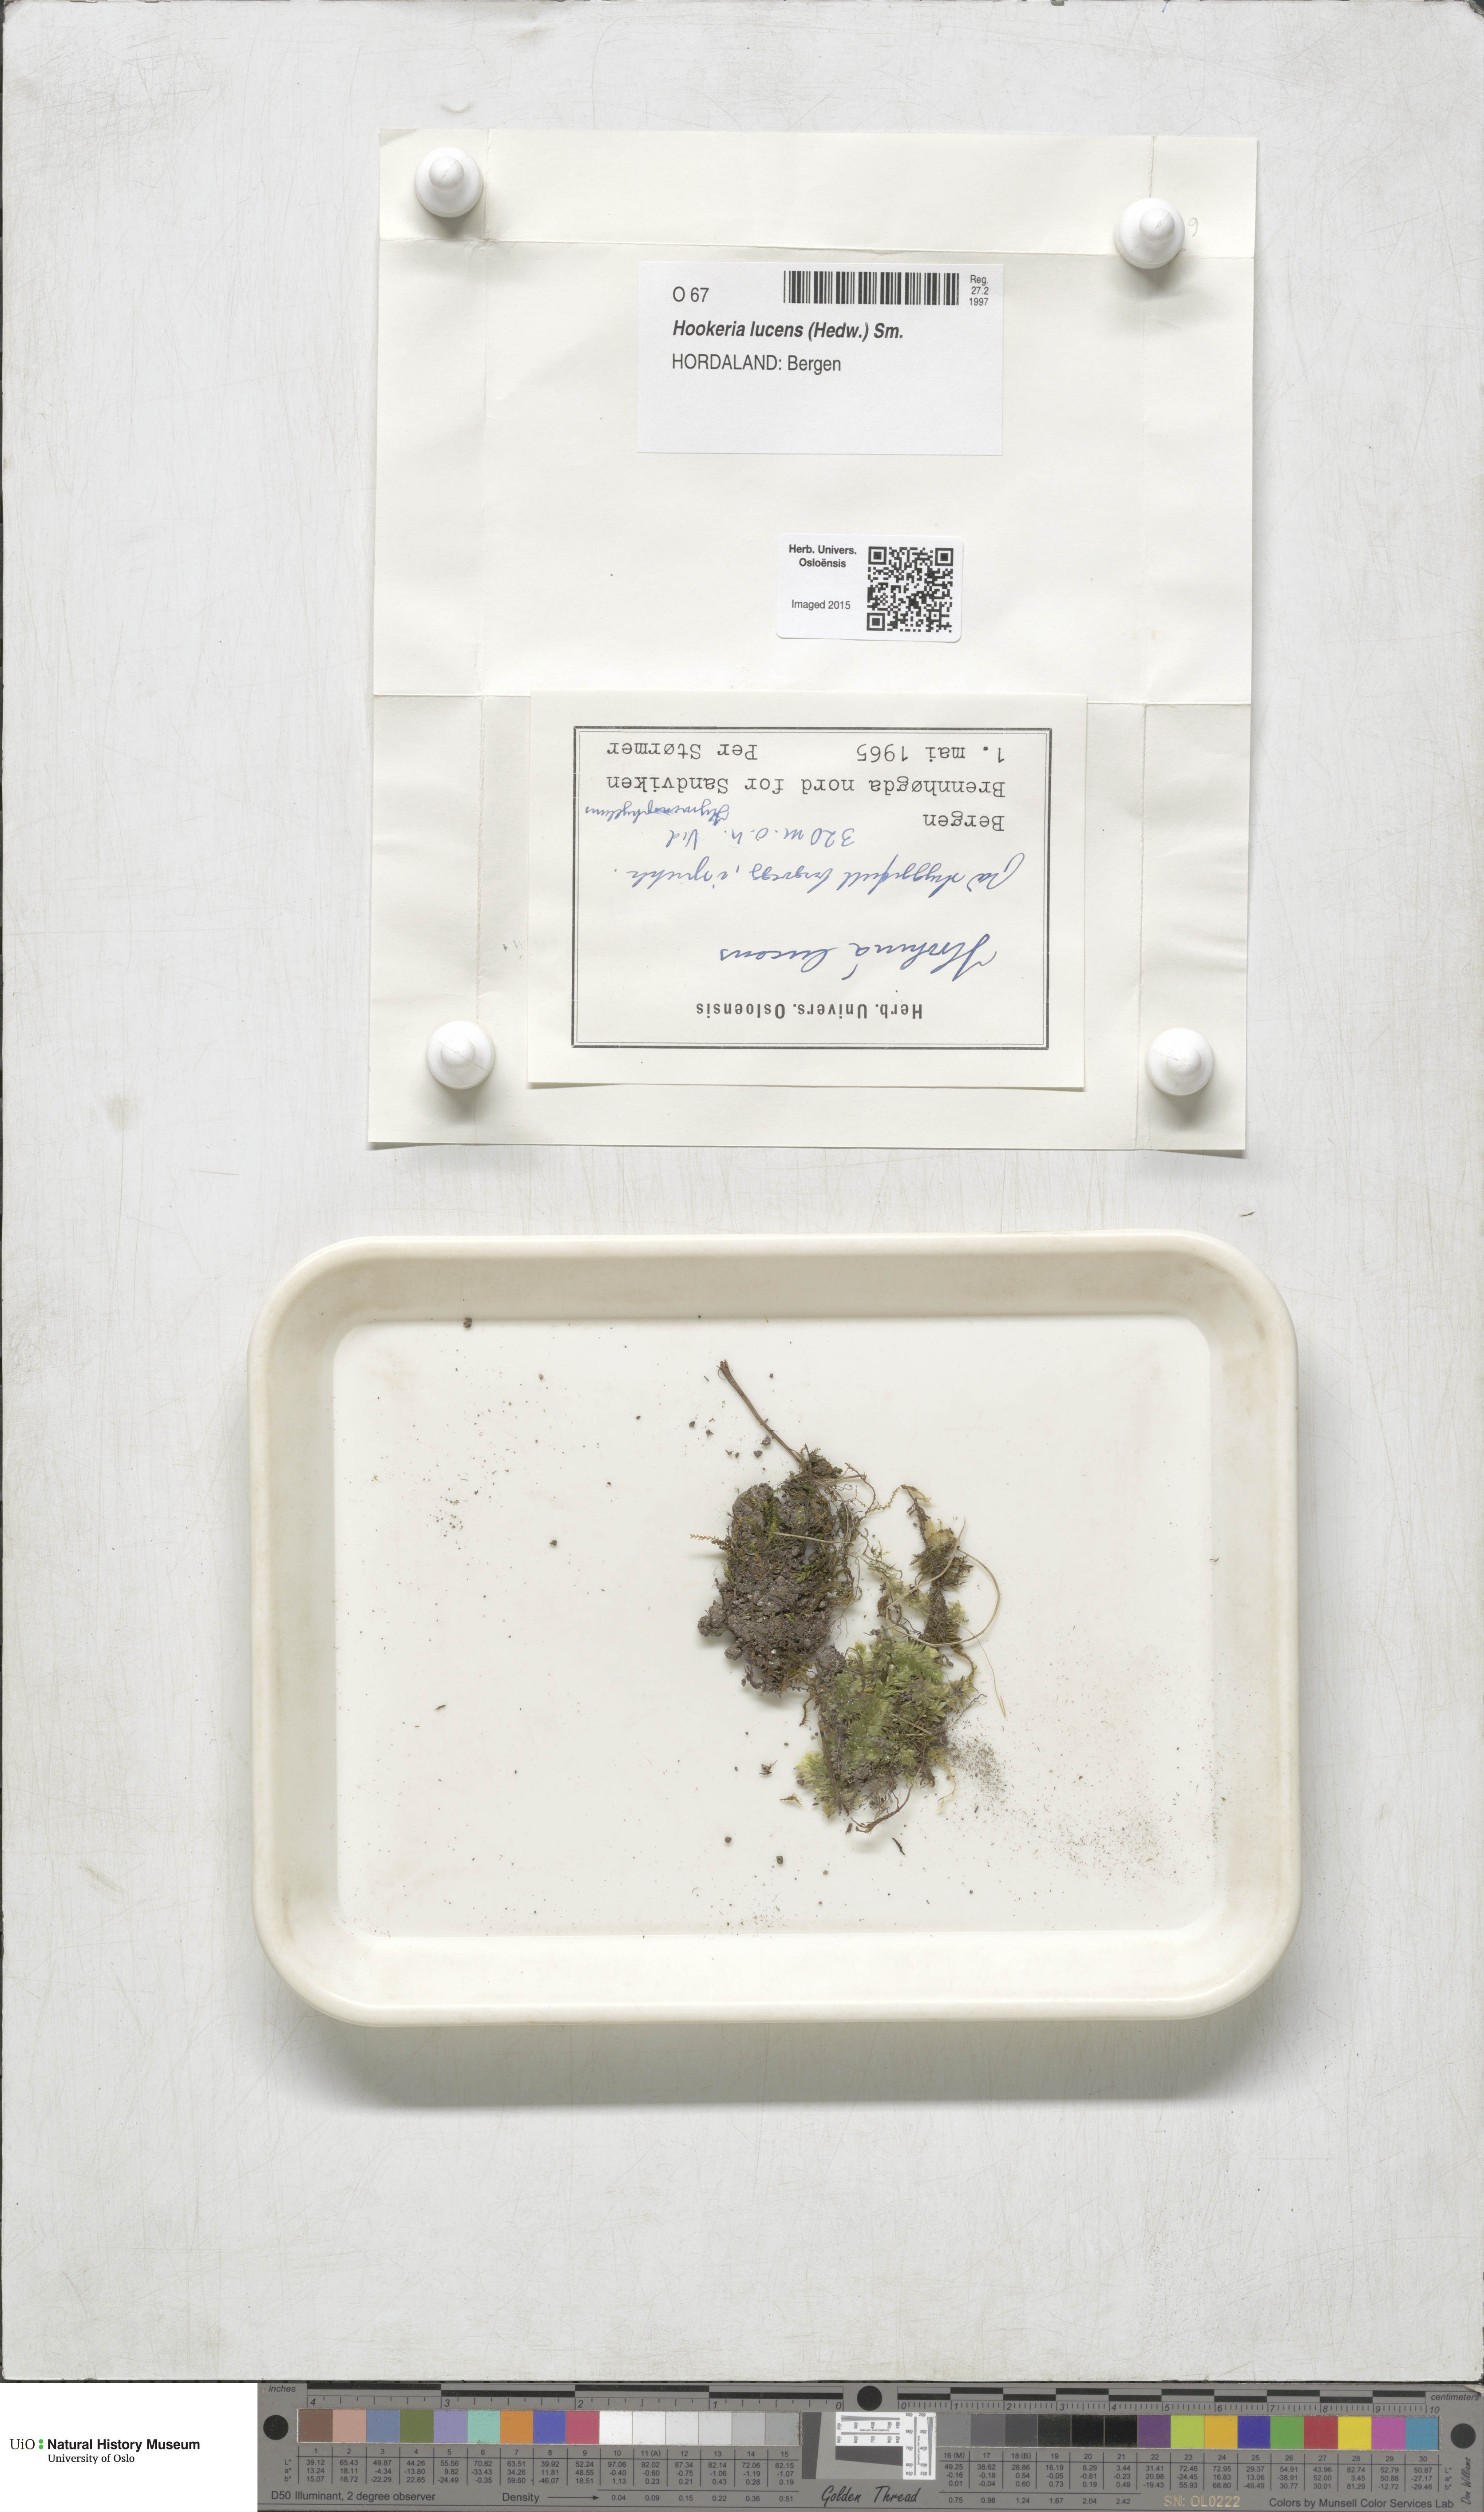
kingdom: Plantae
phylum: Bryophyta
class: Bryopsida
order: Hookeriales
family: Hookeriaceae
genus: Hookeria
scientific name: Hookeria lucens
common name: Shining hookeria
